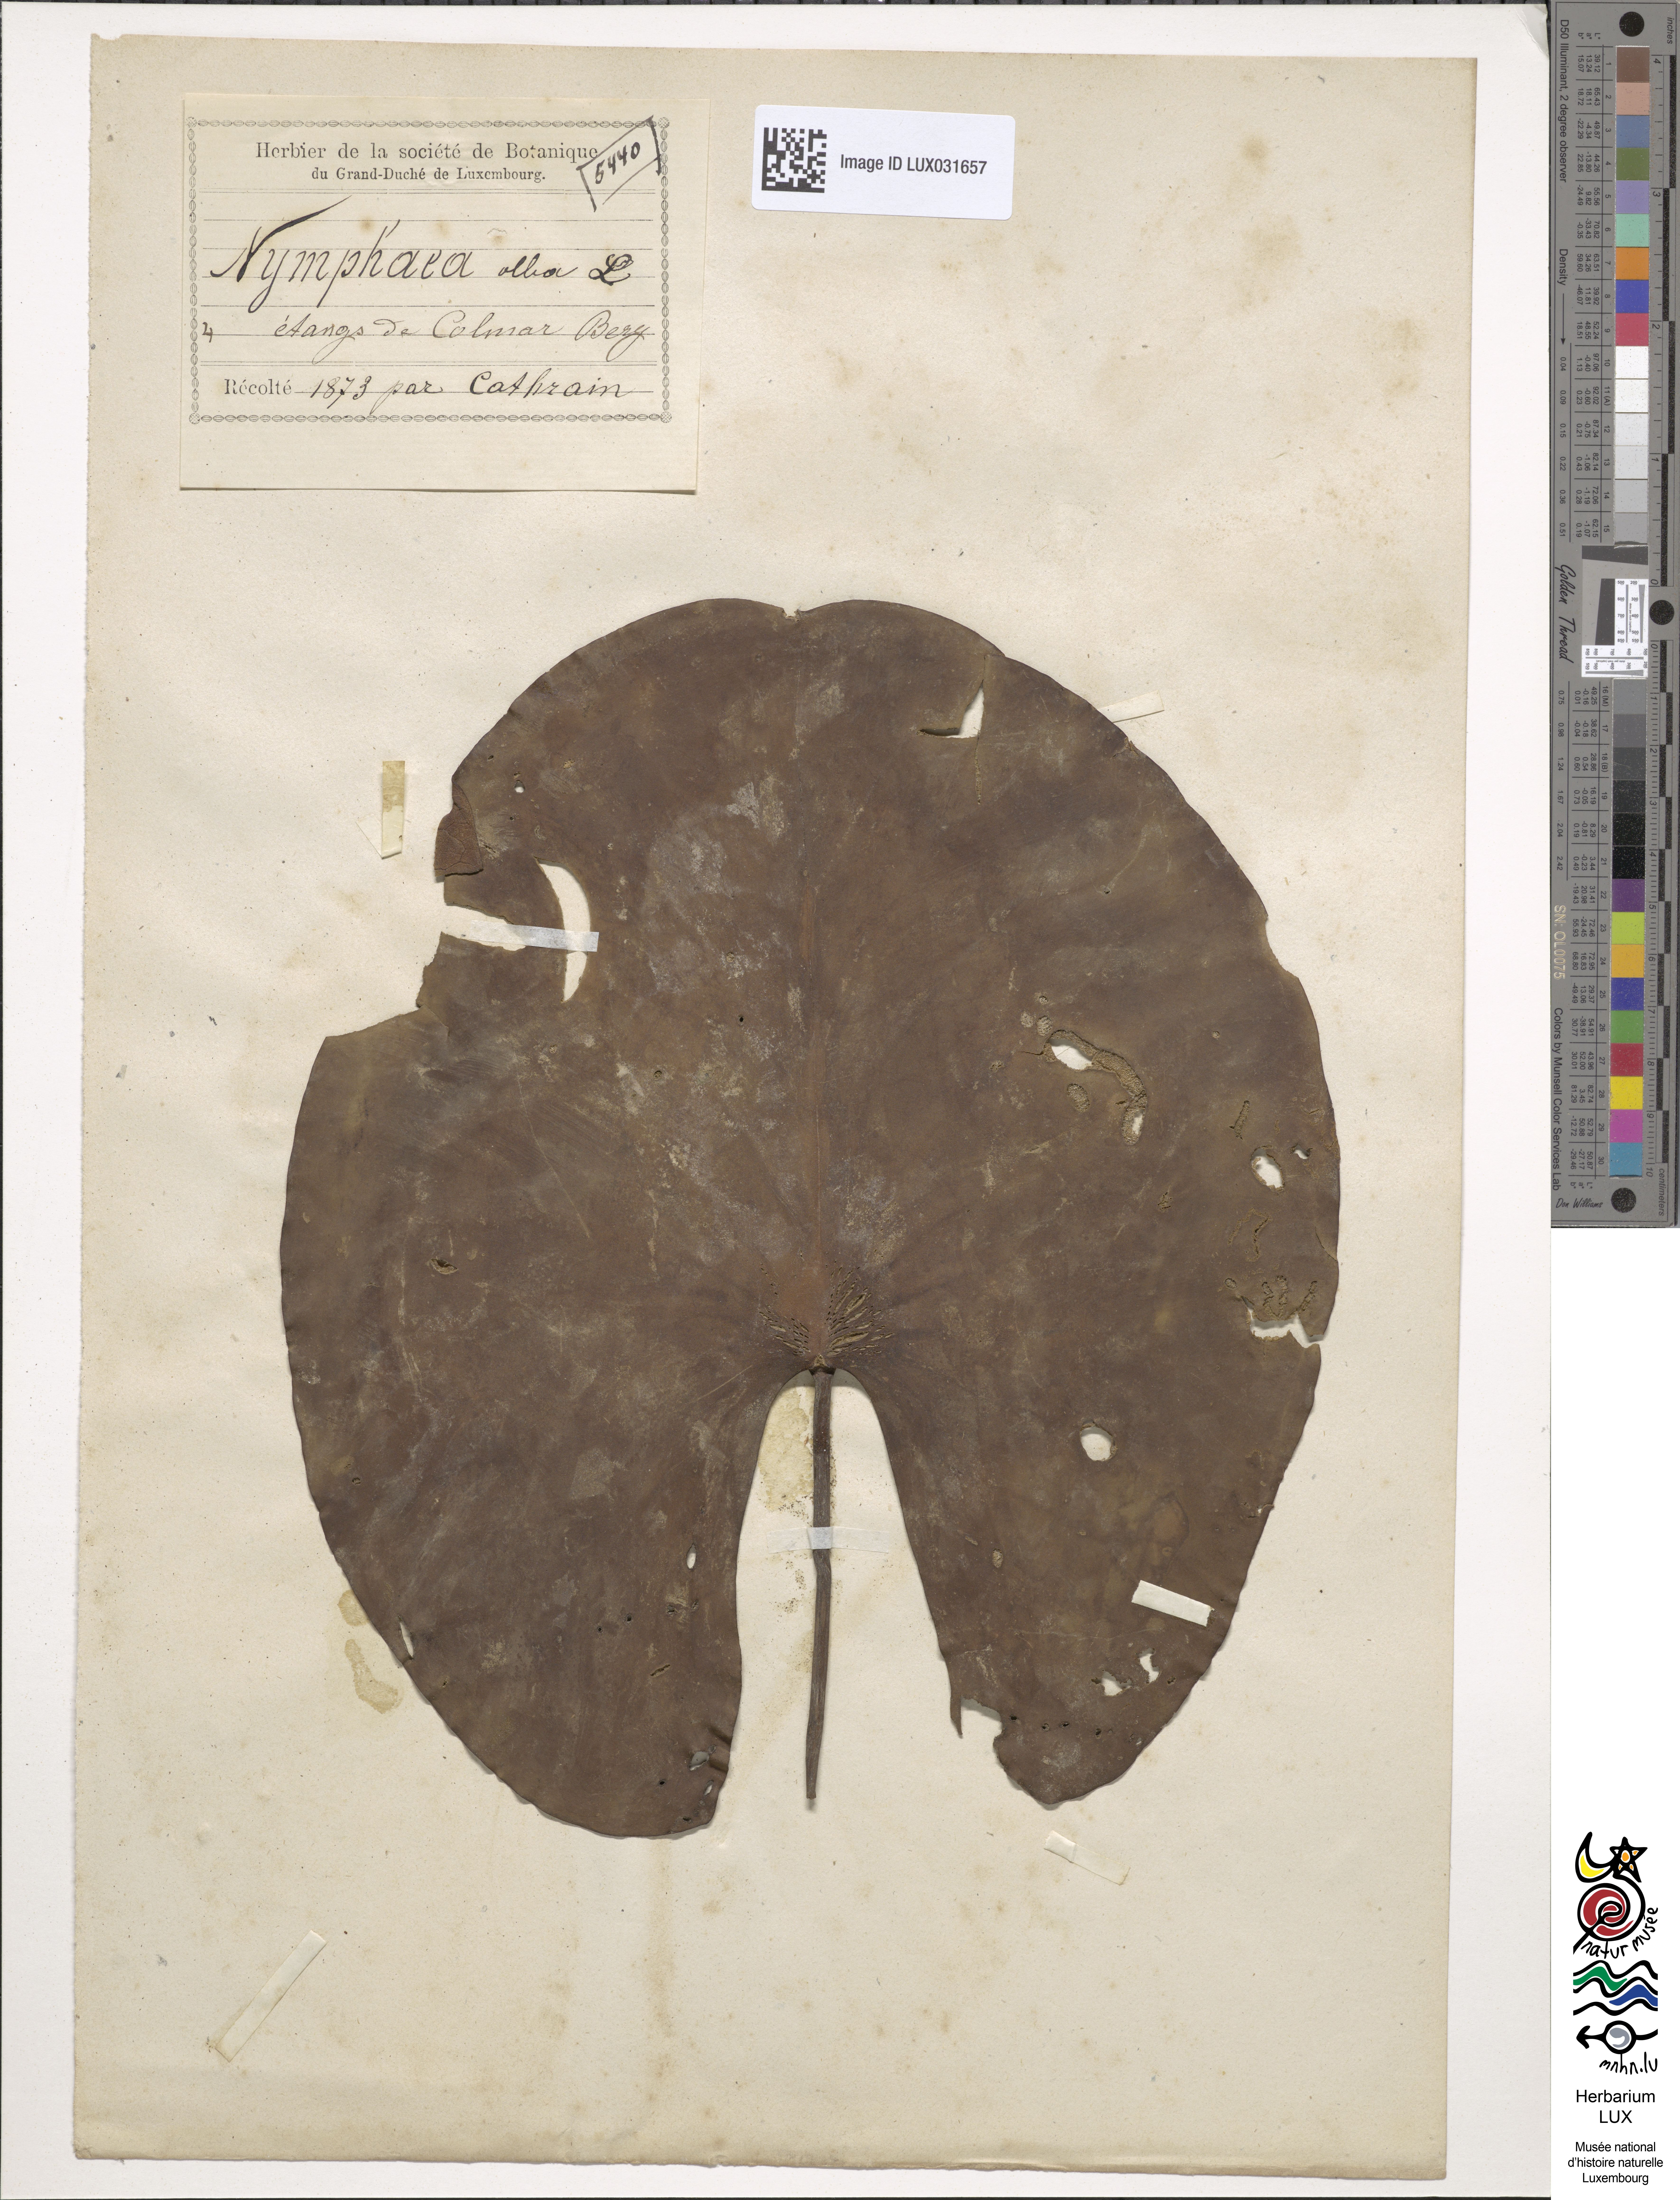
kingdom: Plantae
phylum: Tracheophyta
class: Magnoliopsida
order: Nymphaeales
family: Nymphaeaceae
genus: Nymphaea
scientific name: Nymphaea alba
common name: White water-lily
